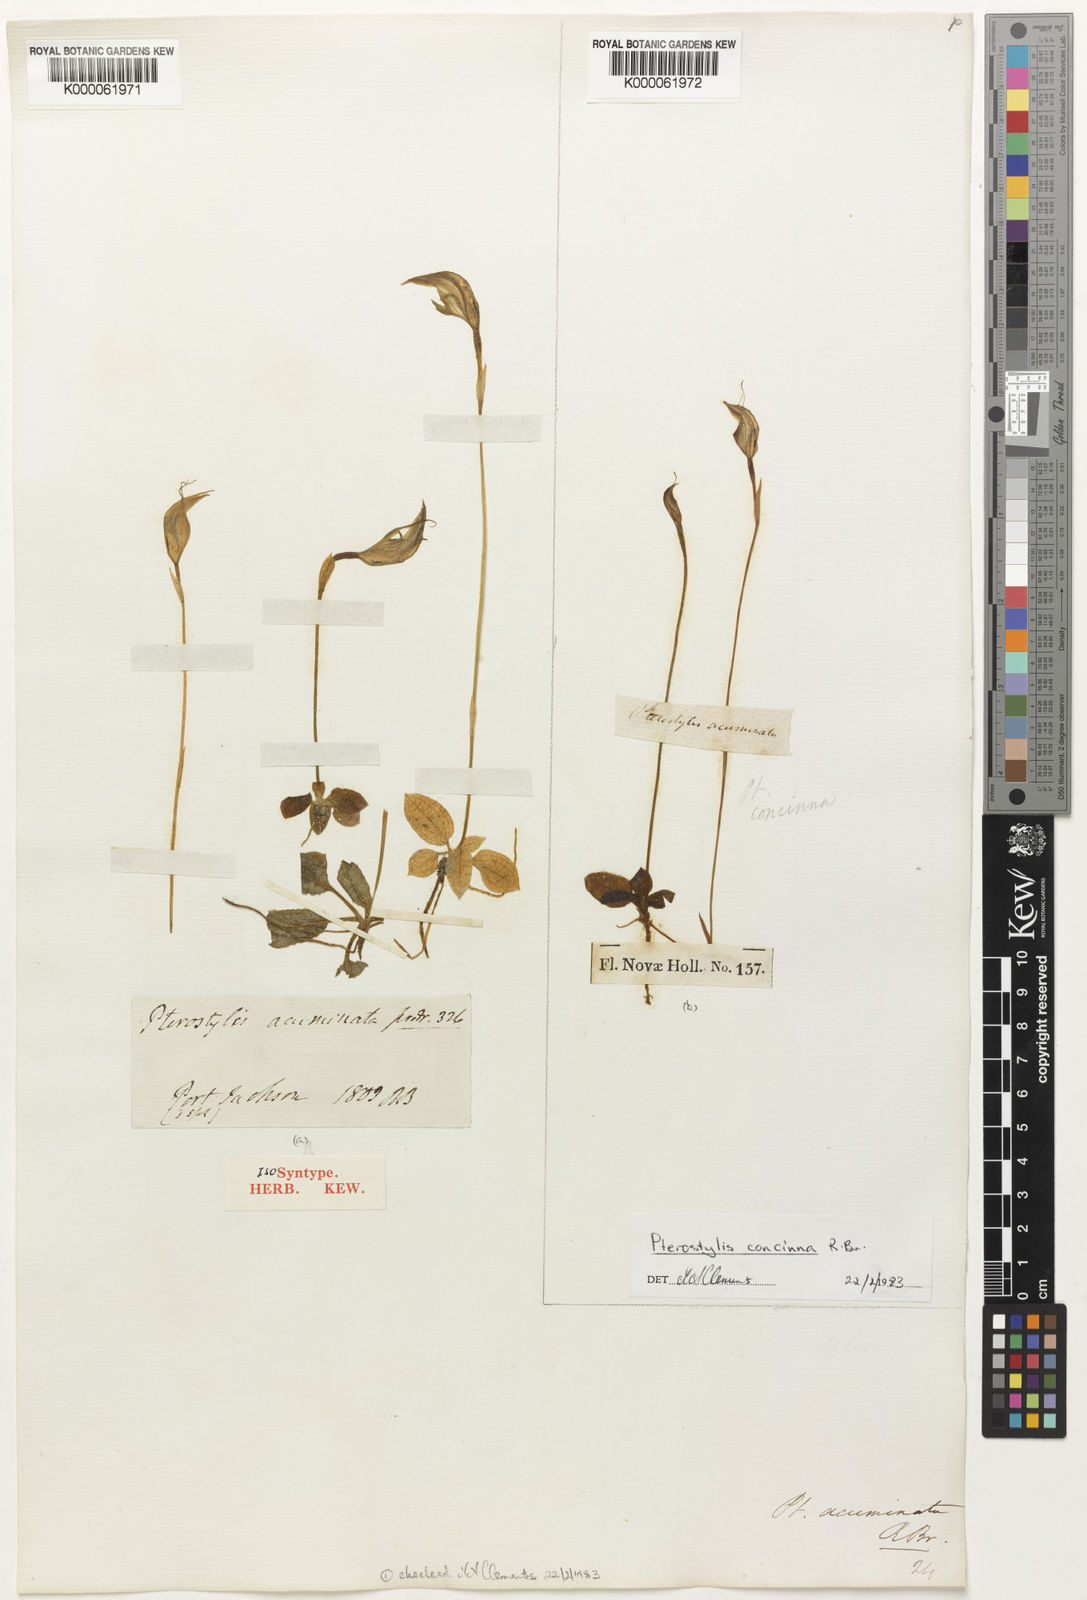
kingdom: Plantae
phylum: Tracheophyta
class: Liliopsida
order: Asparagales
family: Orchidaceae
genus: Pterostylis
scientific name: Pterostylis acuminata
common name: Pointed greenhood
